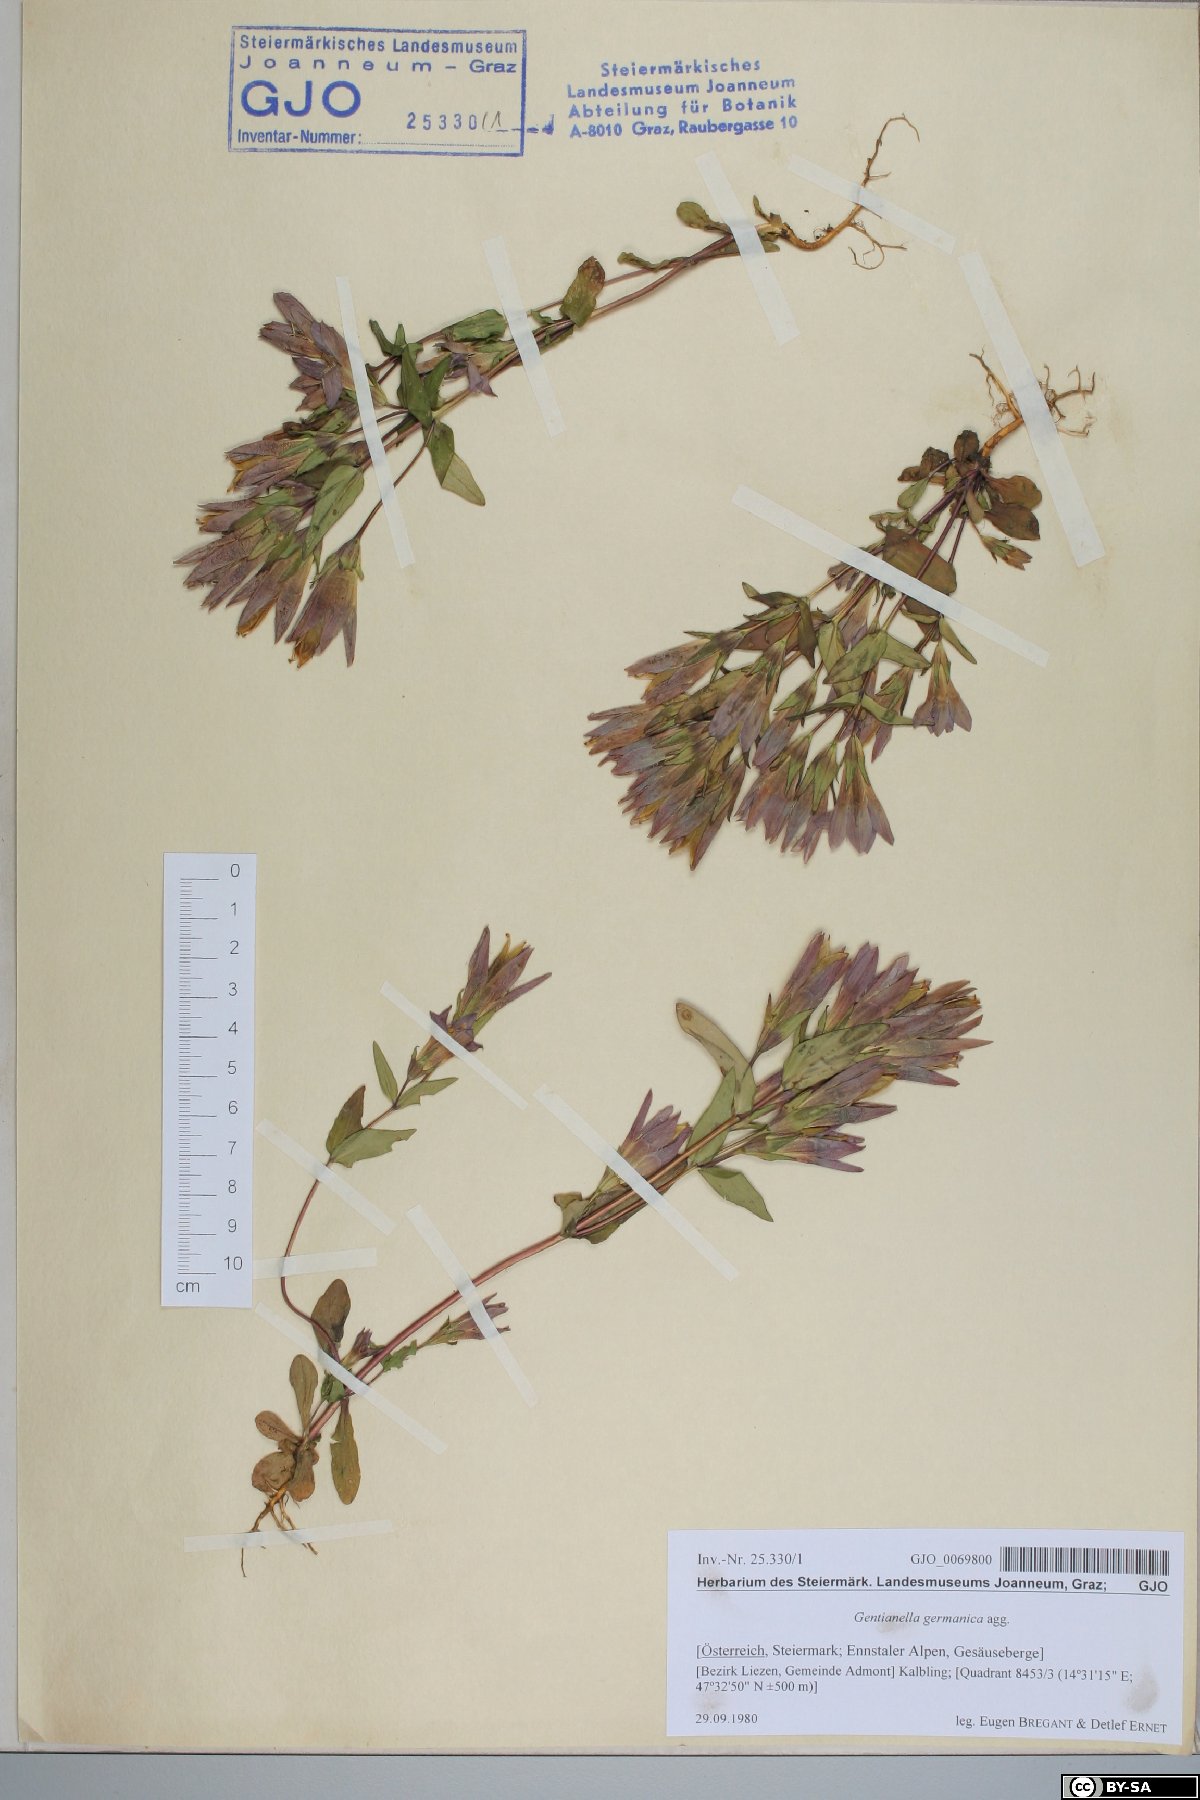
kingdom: Plantae
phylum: Tracheophyta
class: Magnoliopsida
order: Gentianales
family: Gentianaceae
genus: Gentianella
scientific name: Gentianella germanica
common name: Chiltern-gentian
